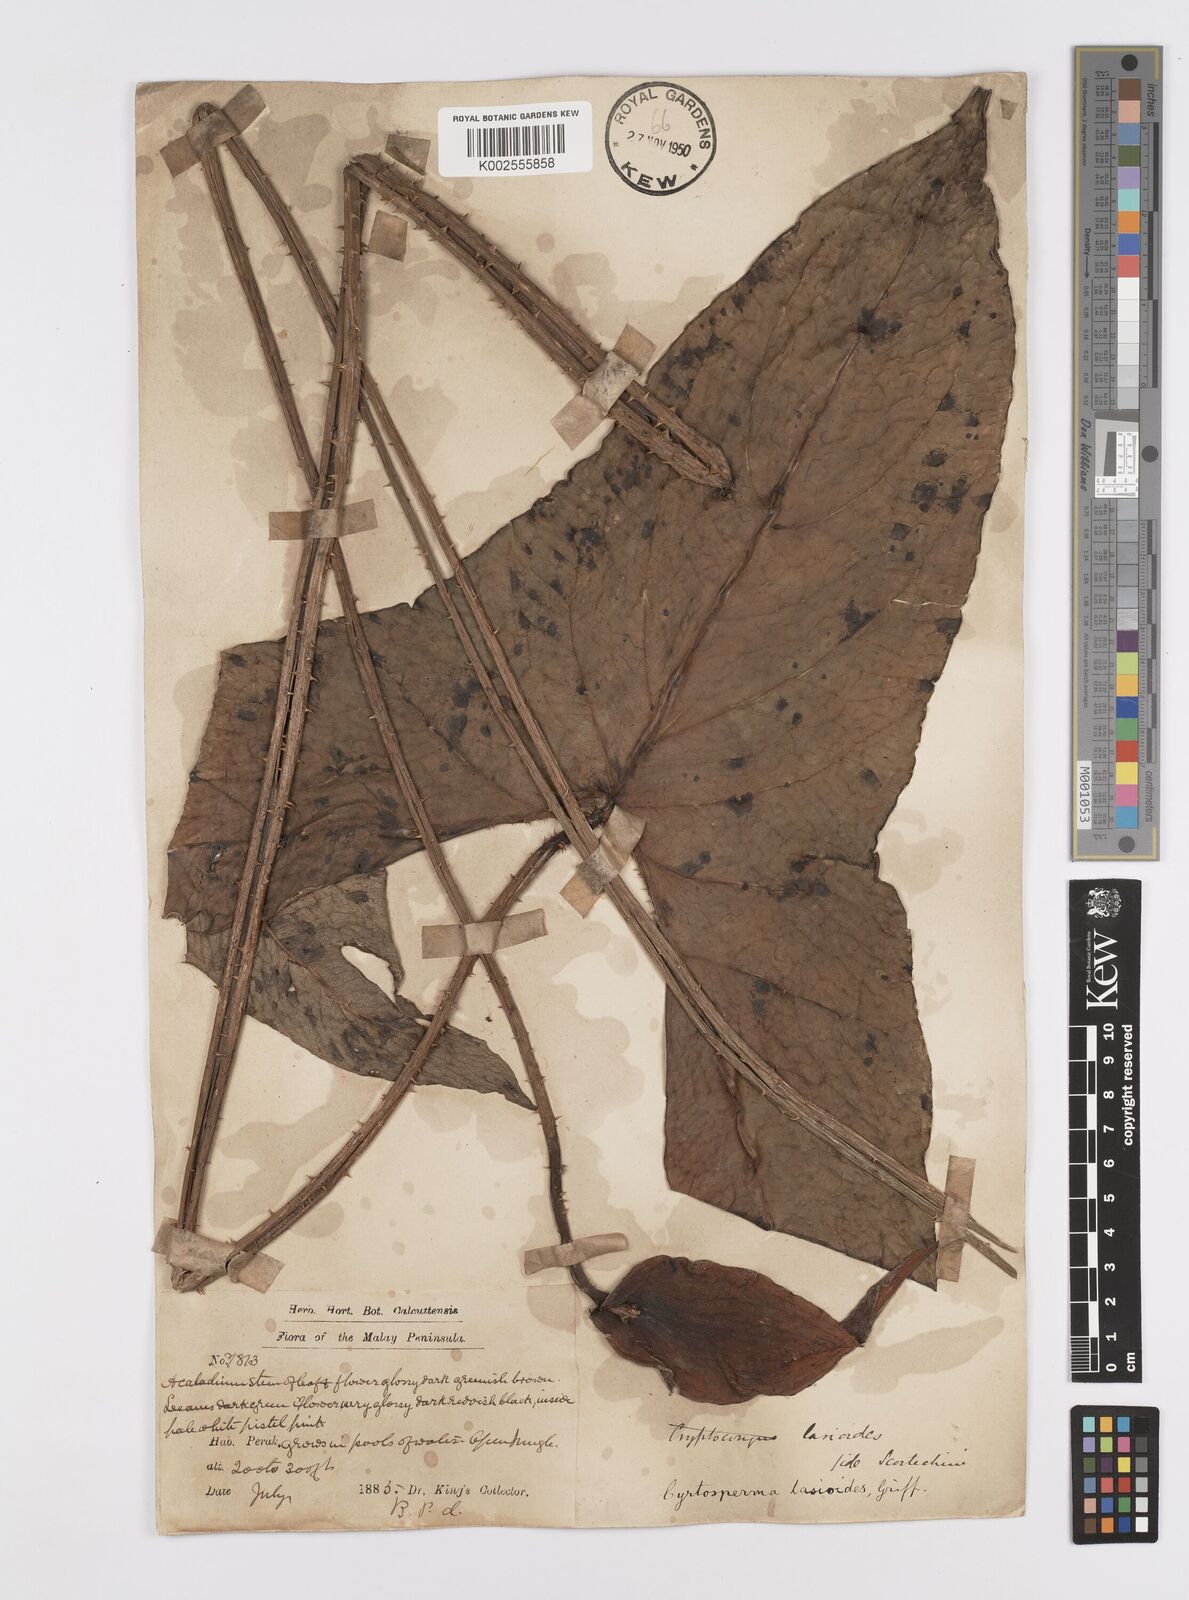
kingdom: Plantae
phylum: Tracheophyta
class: Liliopsida
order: Alismatales
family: Araceae
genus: Cyrtosperma
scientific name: Cyrtosperma merkusii
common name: Giant swamp-taro
